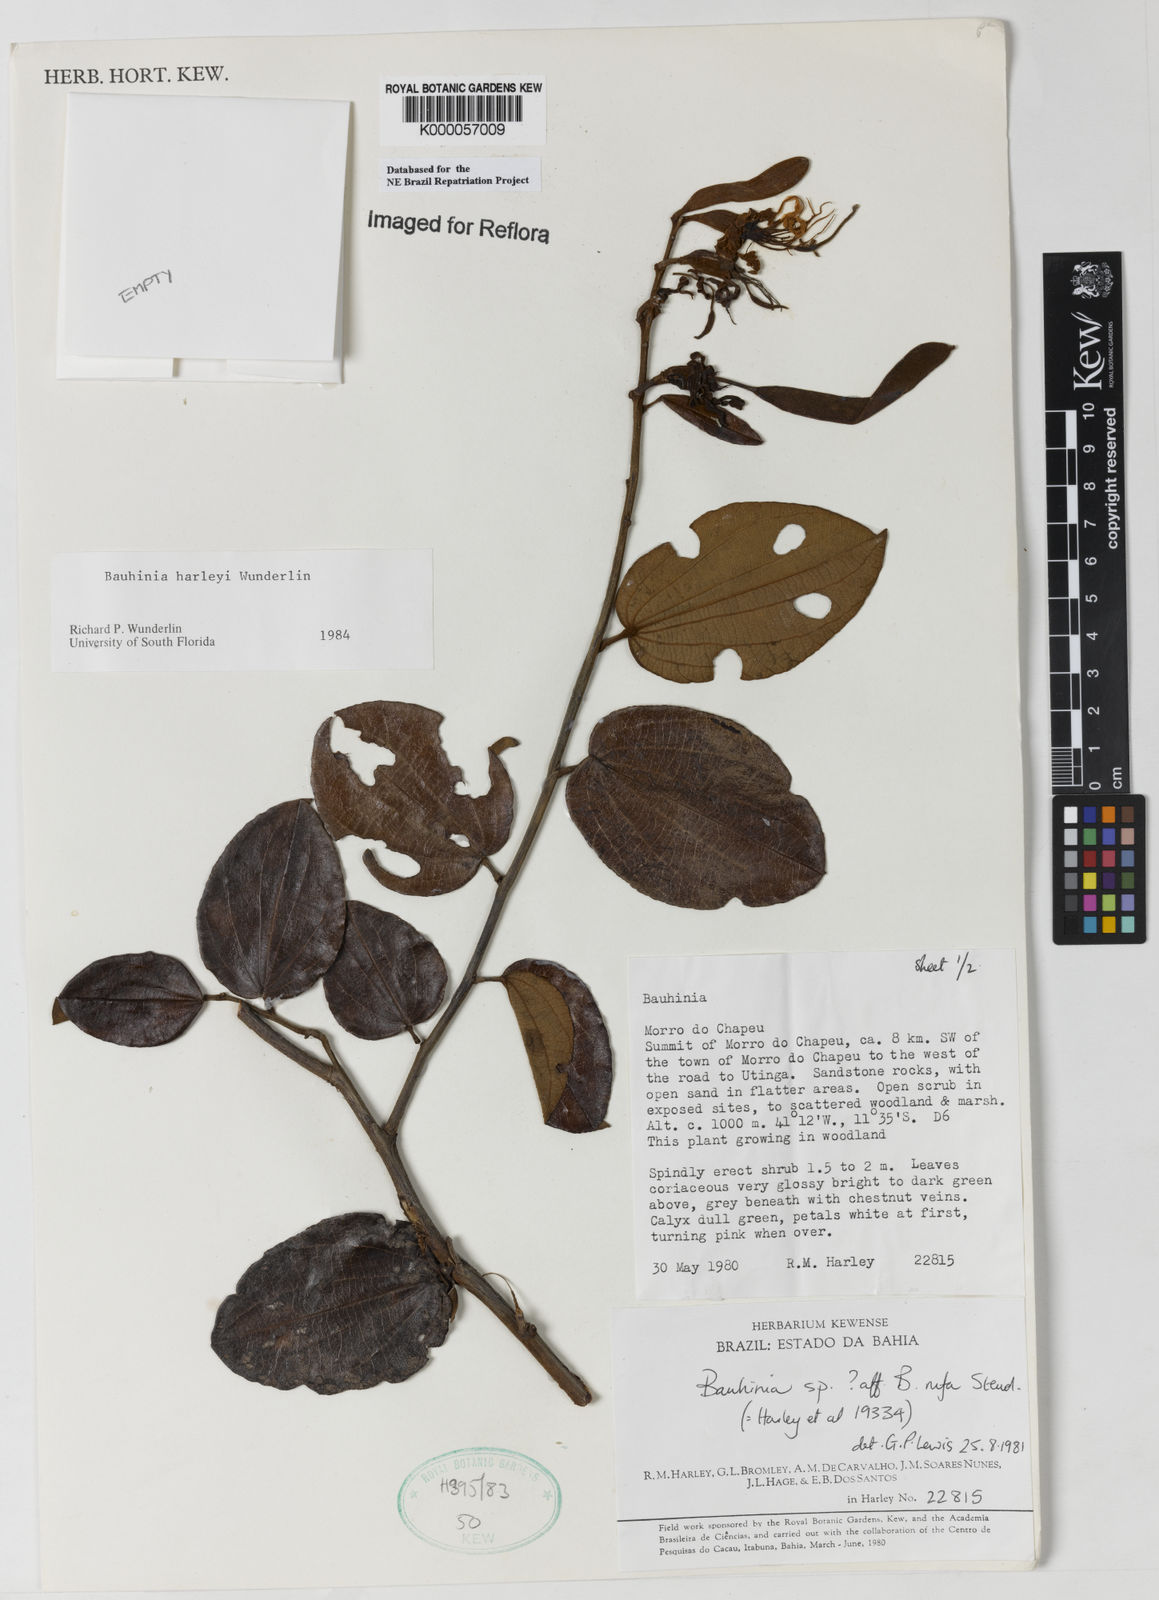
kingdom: Plantae
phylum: Tracheophyta
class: Magnoliopsida
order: Fabales
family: Fabaceae
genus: Bauhinia
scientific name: Bauhinia
